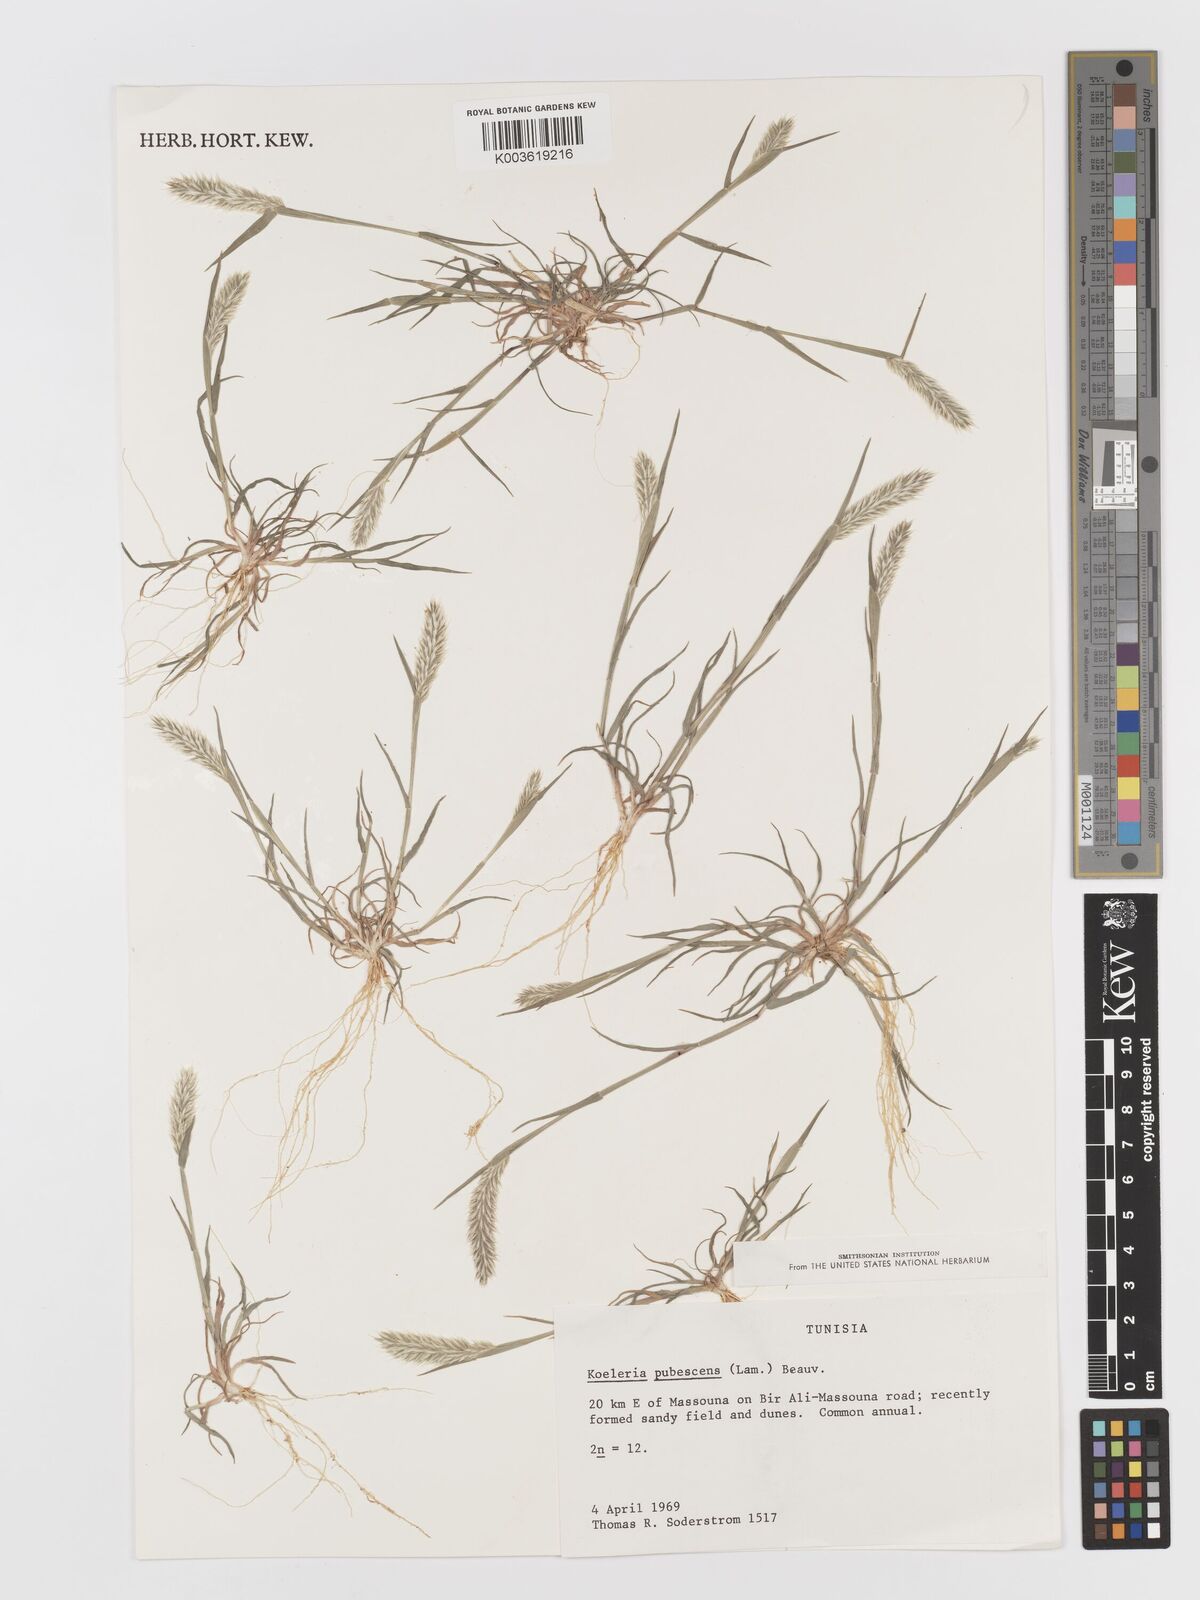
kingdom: Plantae
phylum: Tracheophyta
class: Liliopsida
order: Poales
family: Poaceae
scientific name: Poaceae
